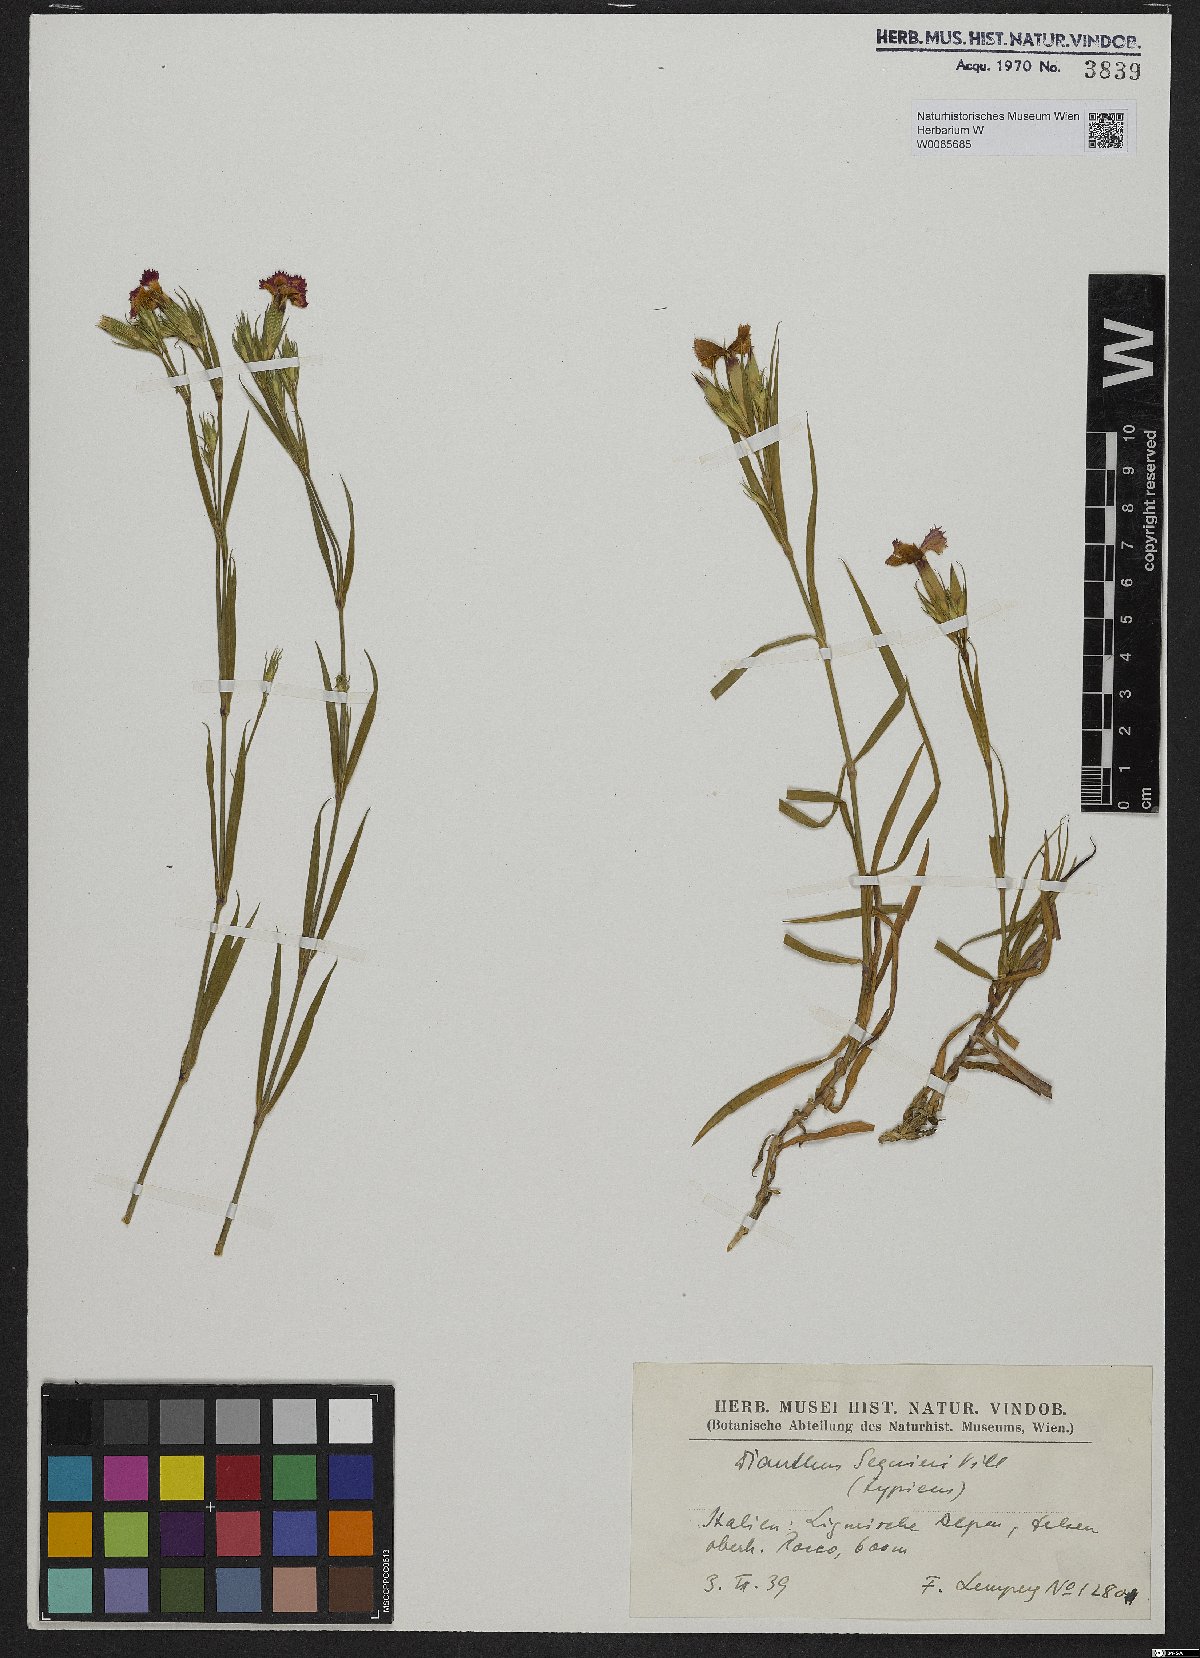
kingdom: Plantae
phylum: Tracheophyta
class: Magnoliopsida
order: Caryophyllales
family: Caryophyllaceae
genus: Dianthus
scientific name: Dianthus seguieri
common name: Ragged pink
